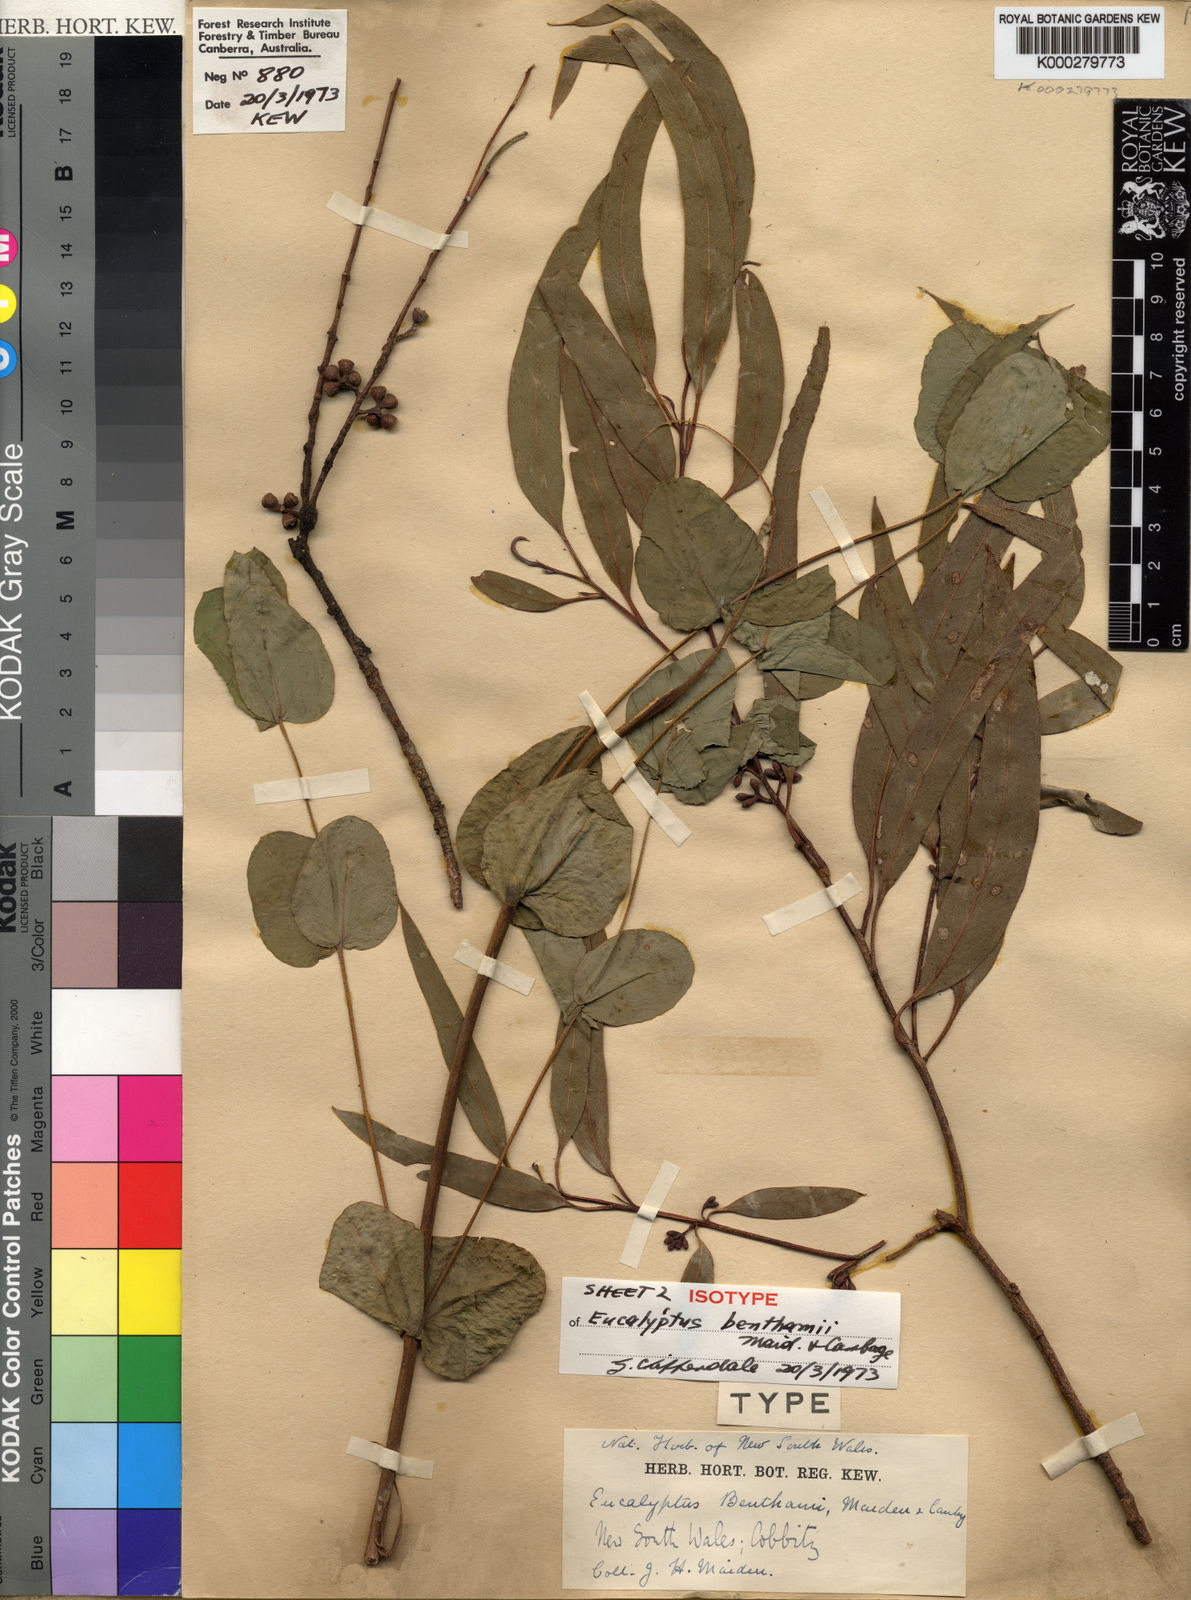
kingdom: Plantae
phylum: Tracheophyta
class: Magnoliopsida
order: Myrtales
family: Myrtaceae
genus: Eucalyptus
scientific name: Eucalyptus benthamii
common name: Camden white gum
